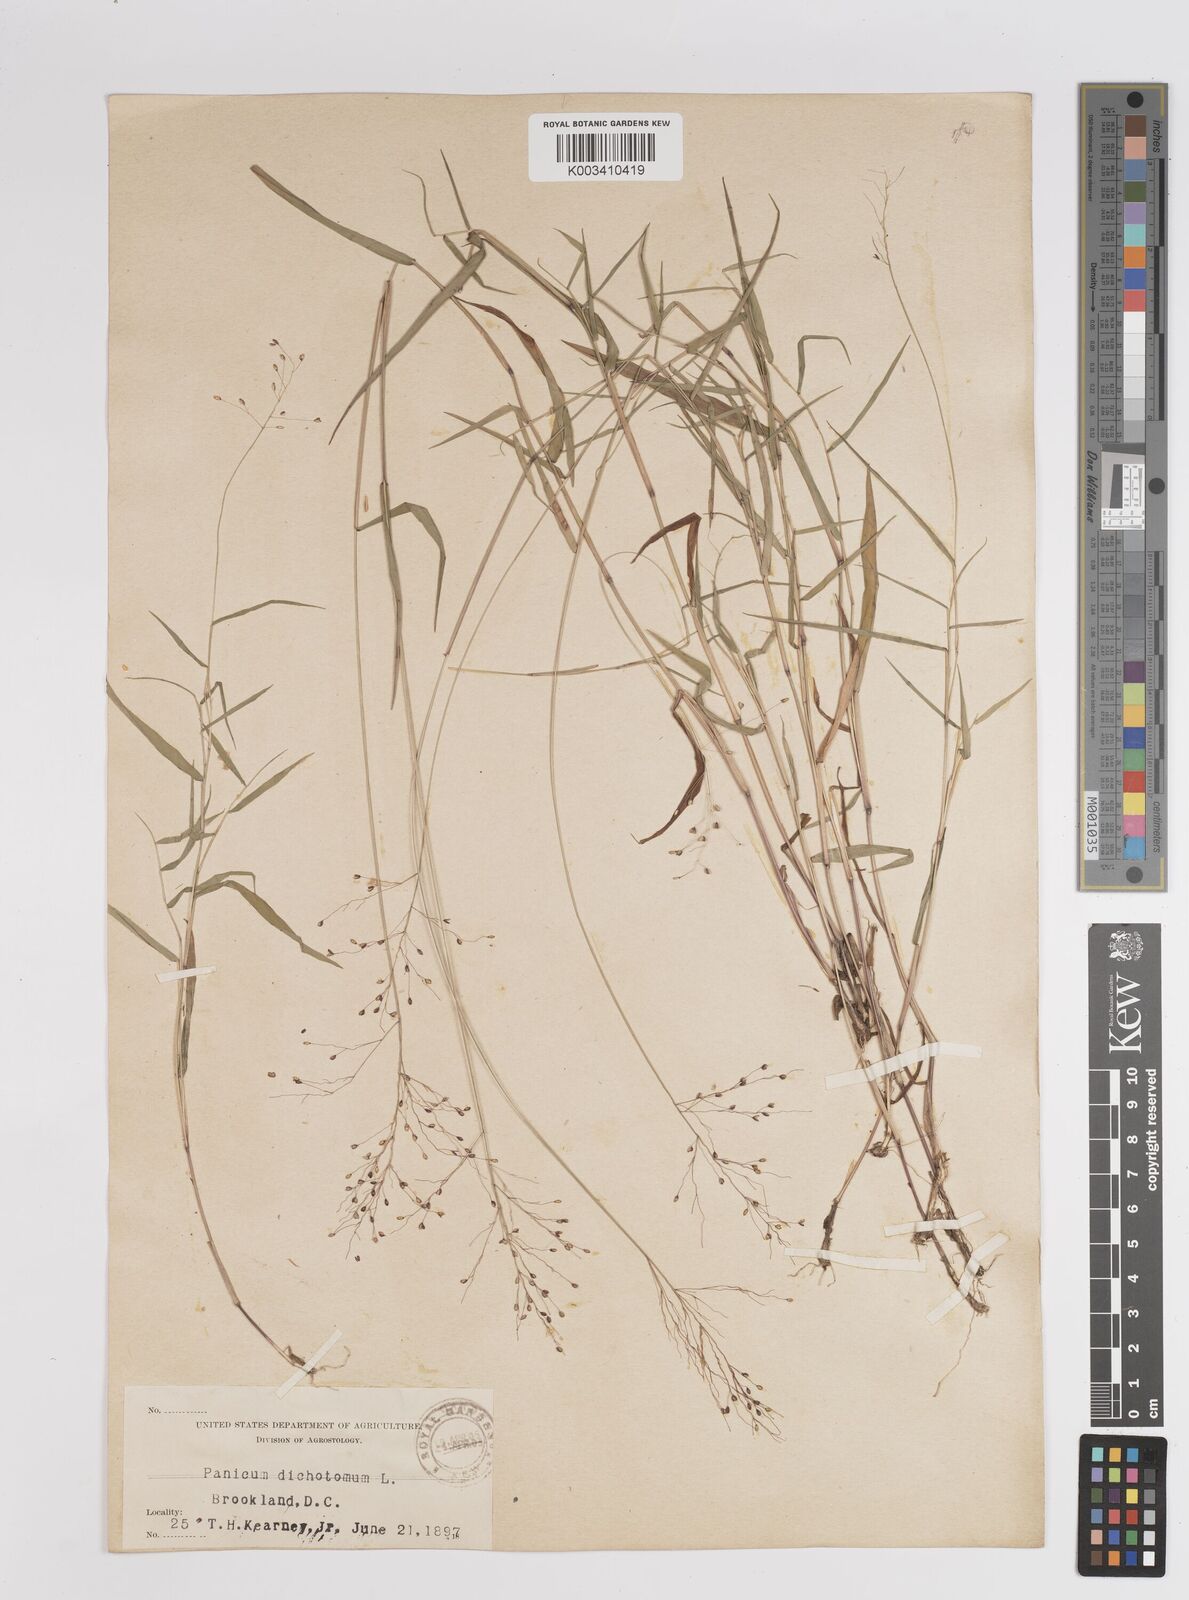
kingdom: Plantae
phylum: Tracheophyta
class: Liliopsida
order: Poales
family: Poaceae
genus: Dichanthelium
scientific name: Dichanthelium dichotomum
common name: Cypress panicgrass
